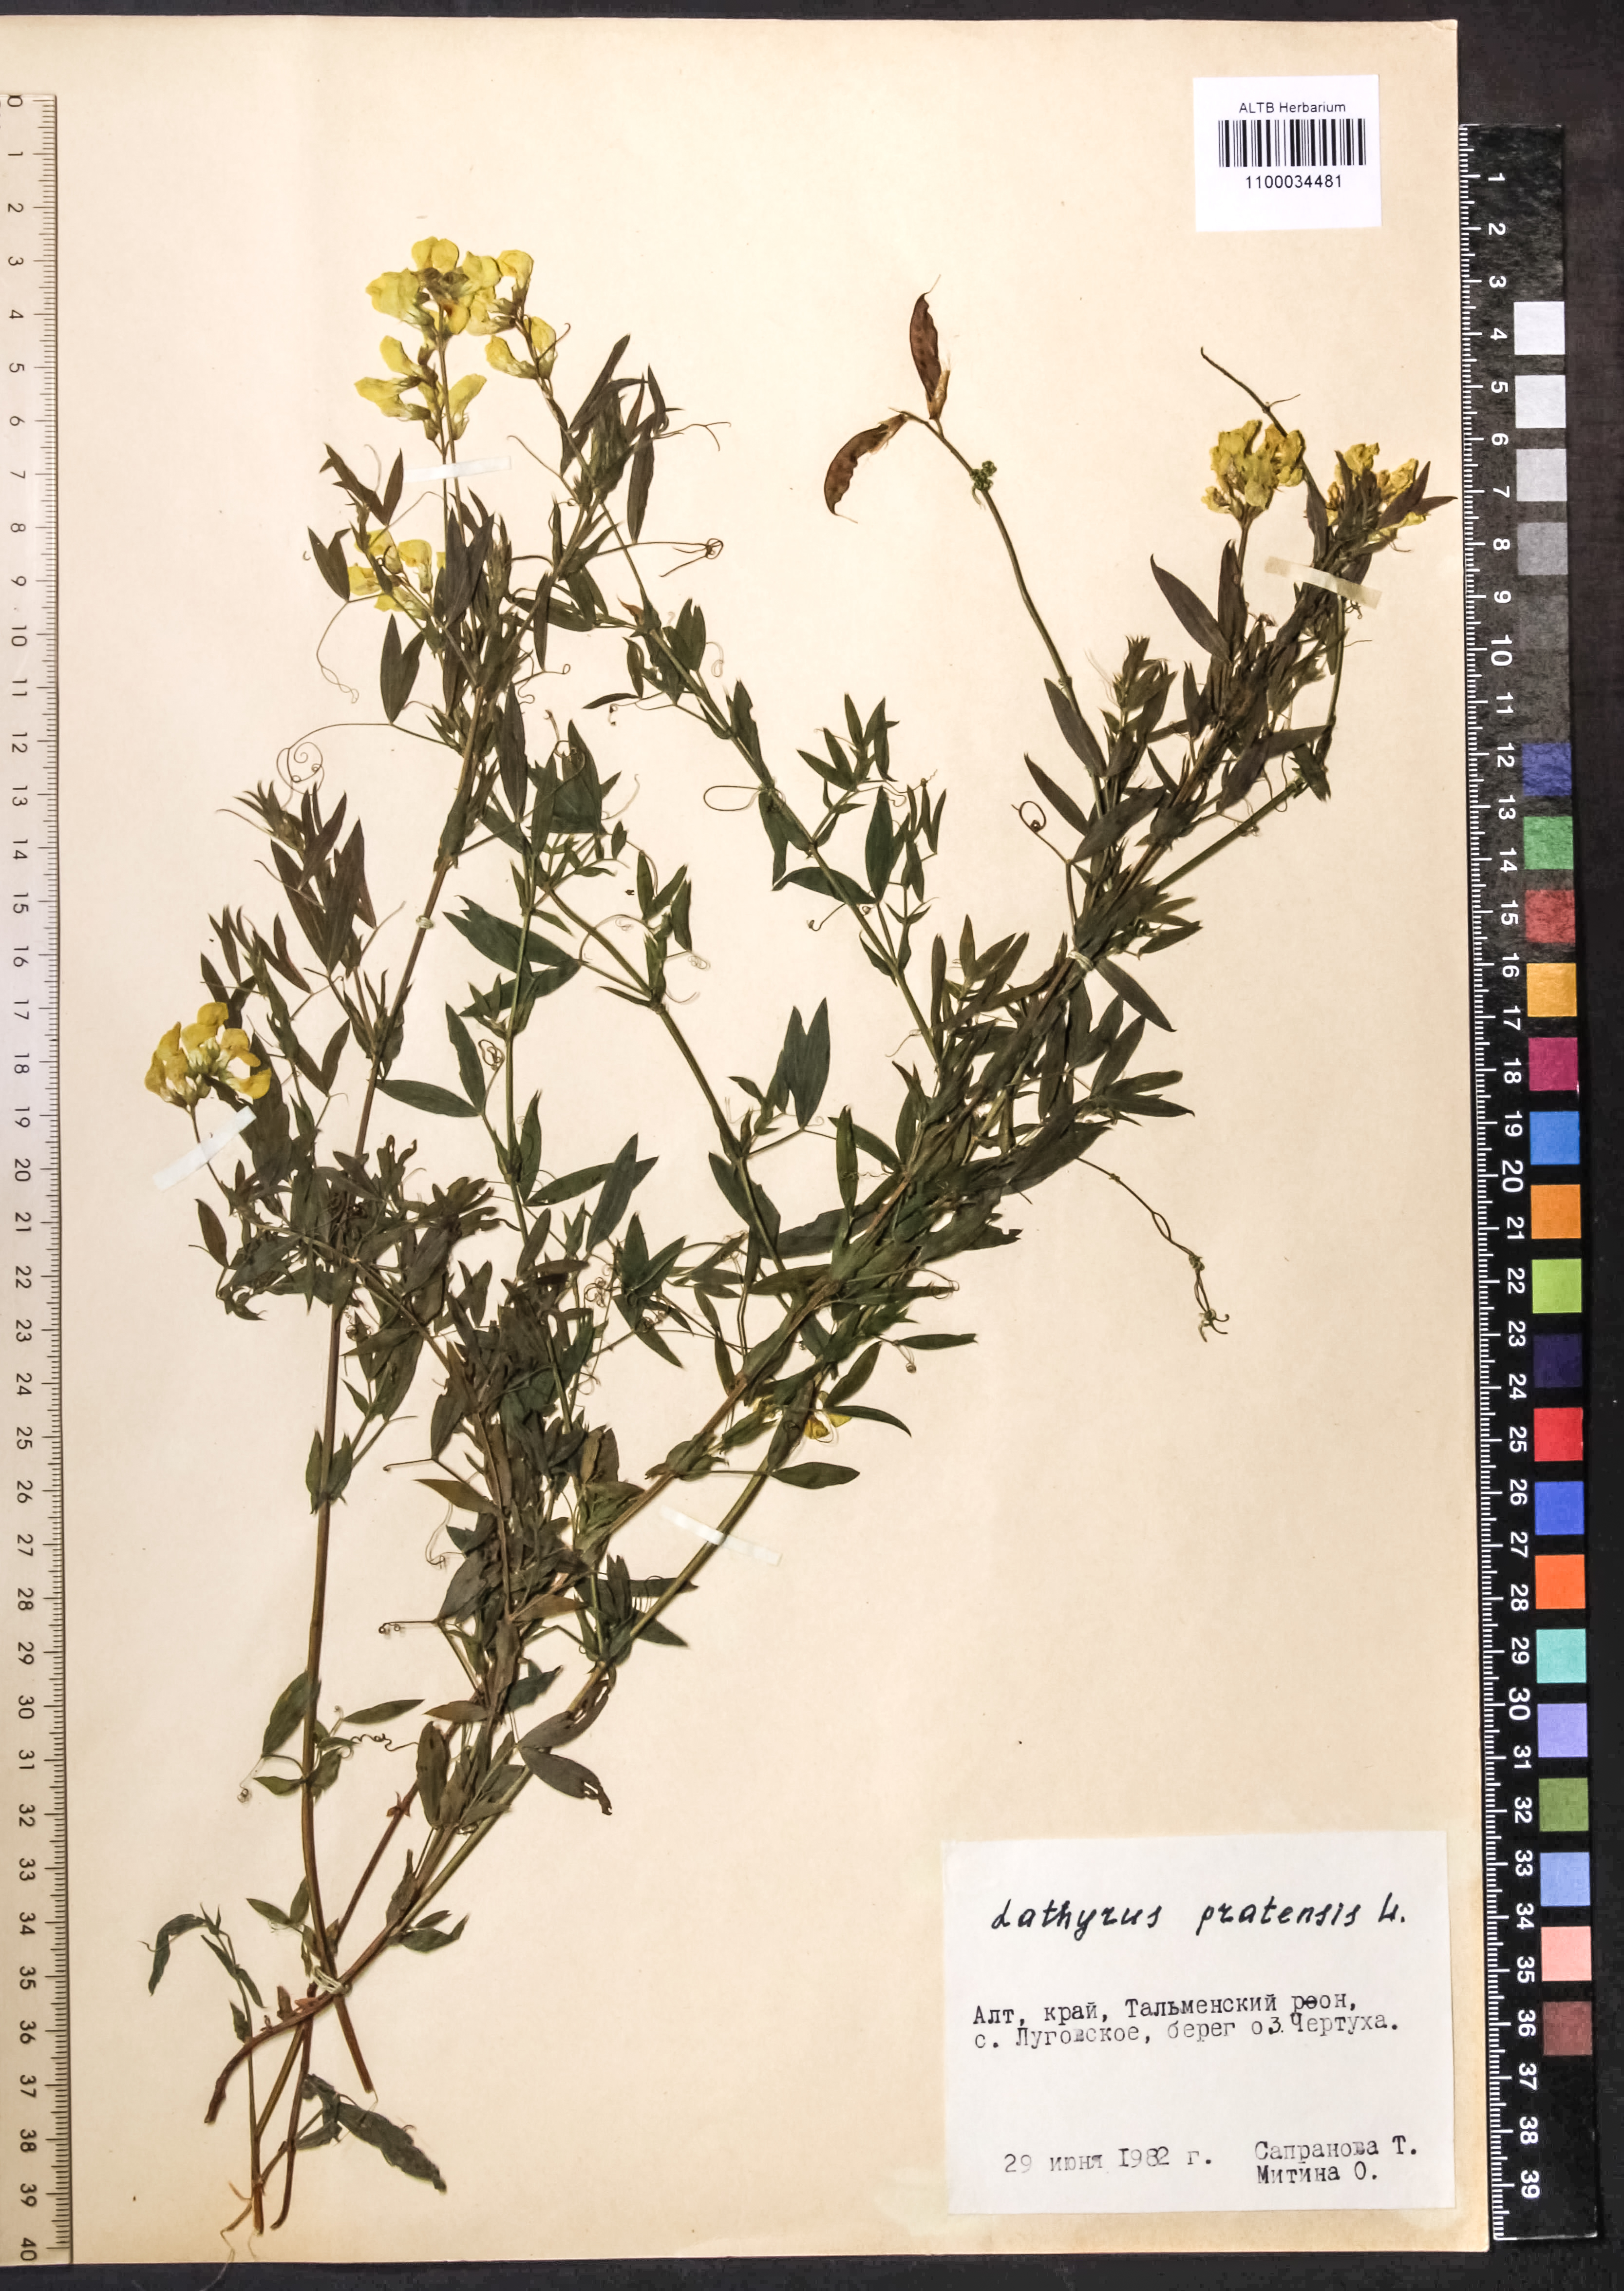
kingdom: Plantae
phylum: Tracheophyta
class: Magnoliopsida
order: Fabales
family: Fabaceae
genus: Lathyrus
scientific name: Lathyrus pratensis
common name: Meadow vetchling
